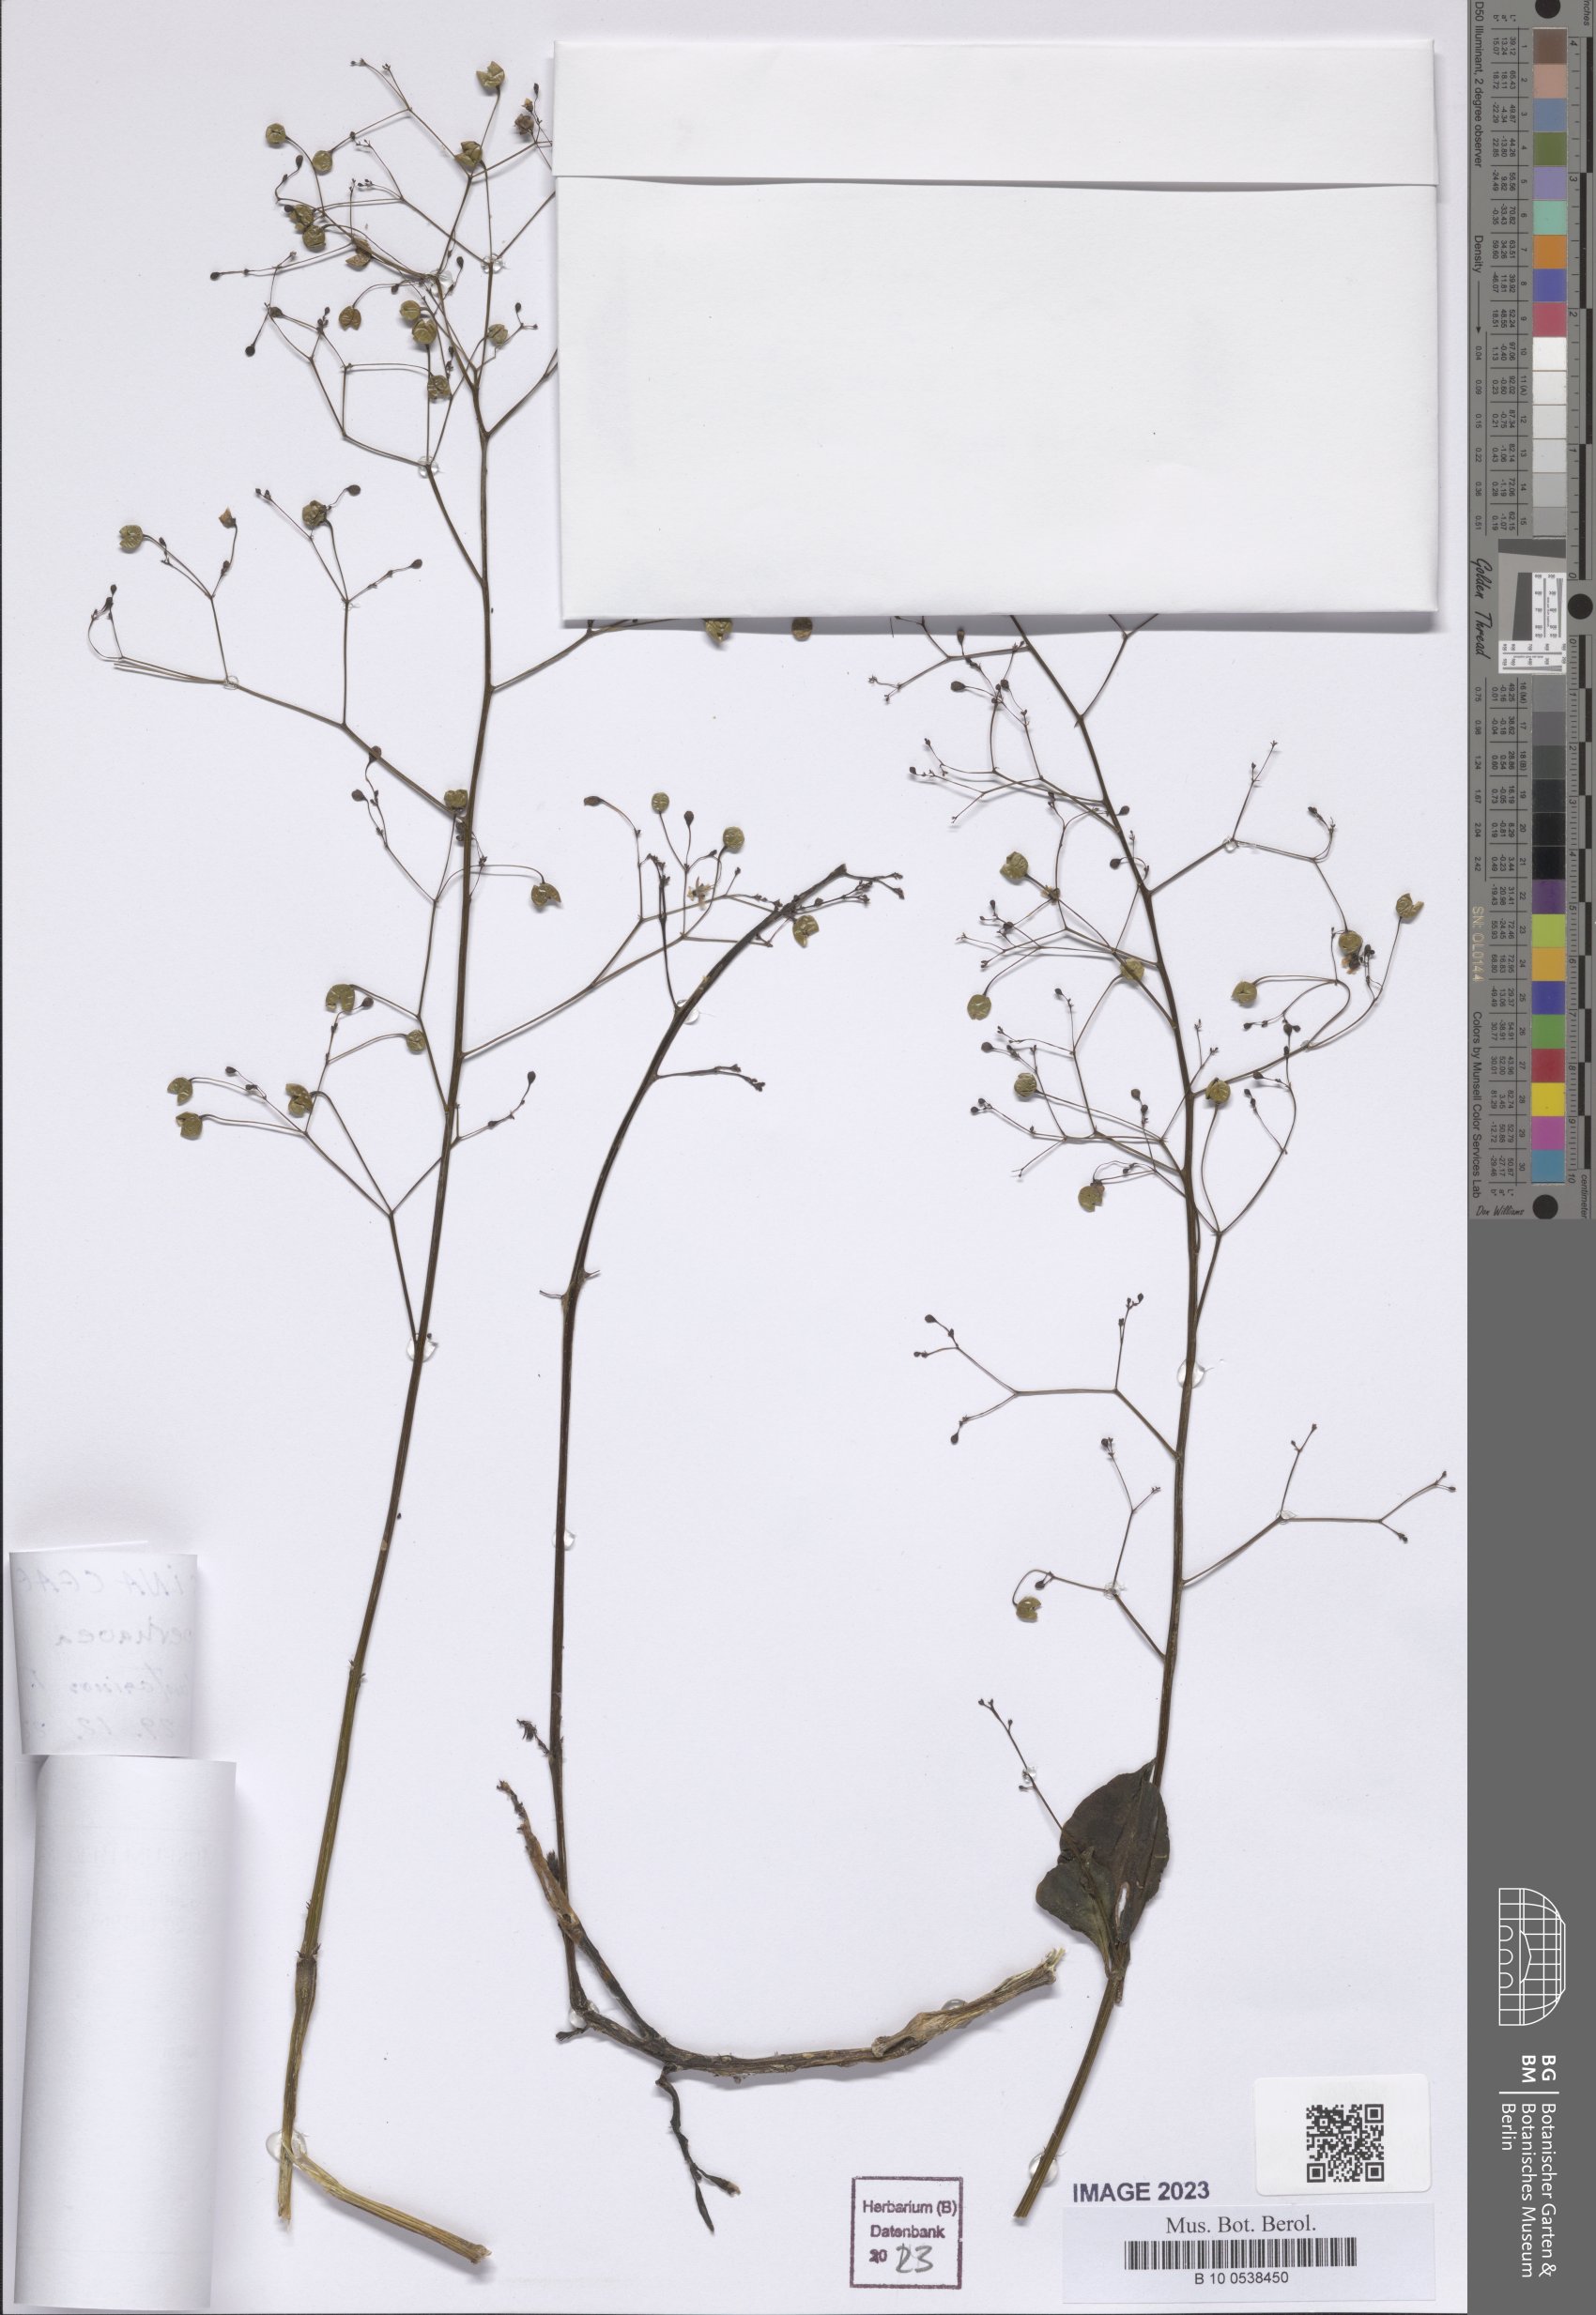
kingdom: Plantae
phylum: Tracheophyta
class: Magnoliopsida
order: Caryophyllales
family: Nyctaginaceae
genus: Boerhavia
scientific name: Boerhavia
